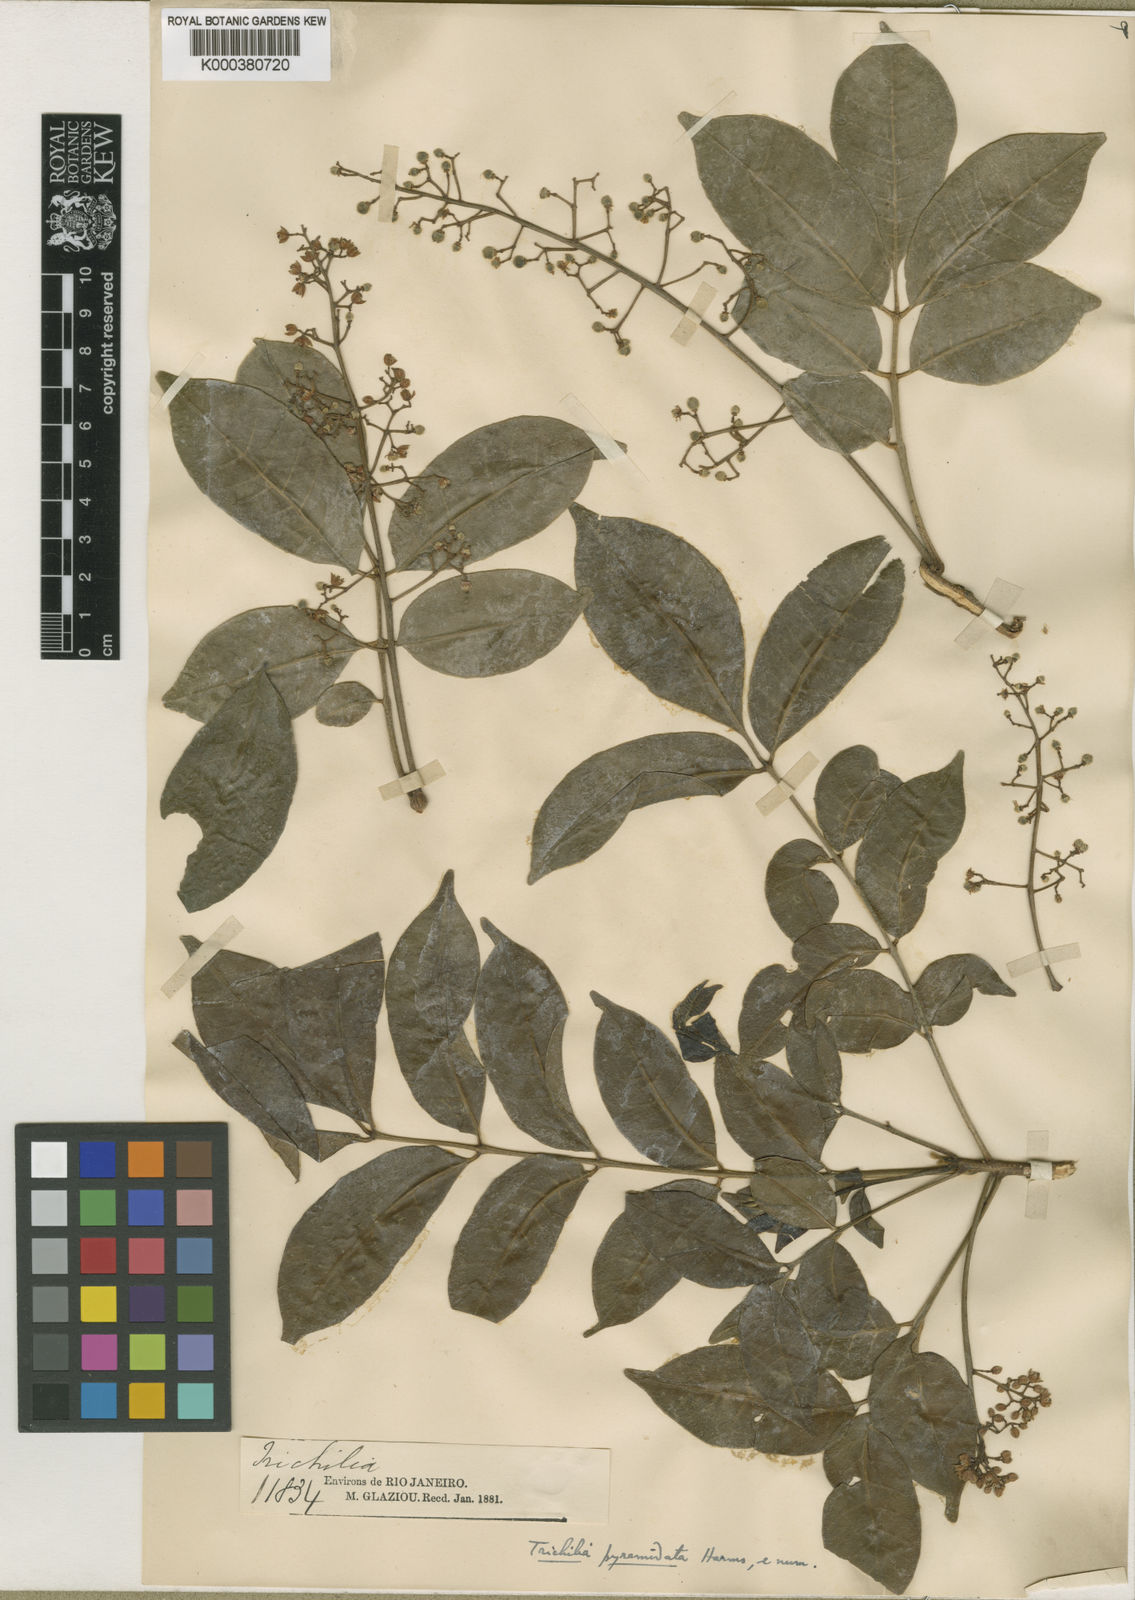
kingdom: Plantae
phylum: Tracheophyta
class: Magnoliopsida
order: Sapindales
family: Meliaceae
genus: Trichilia
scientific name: Trichilia hirta
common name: Red-cedar
